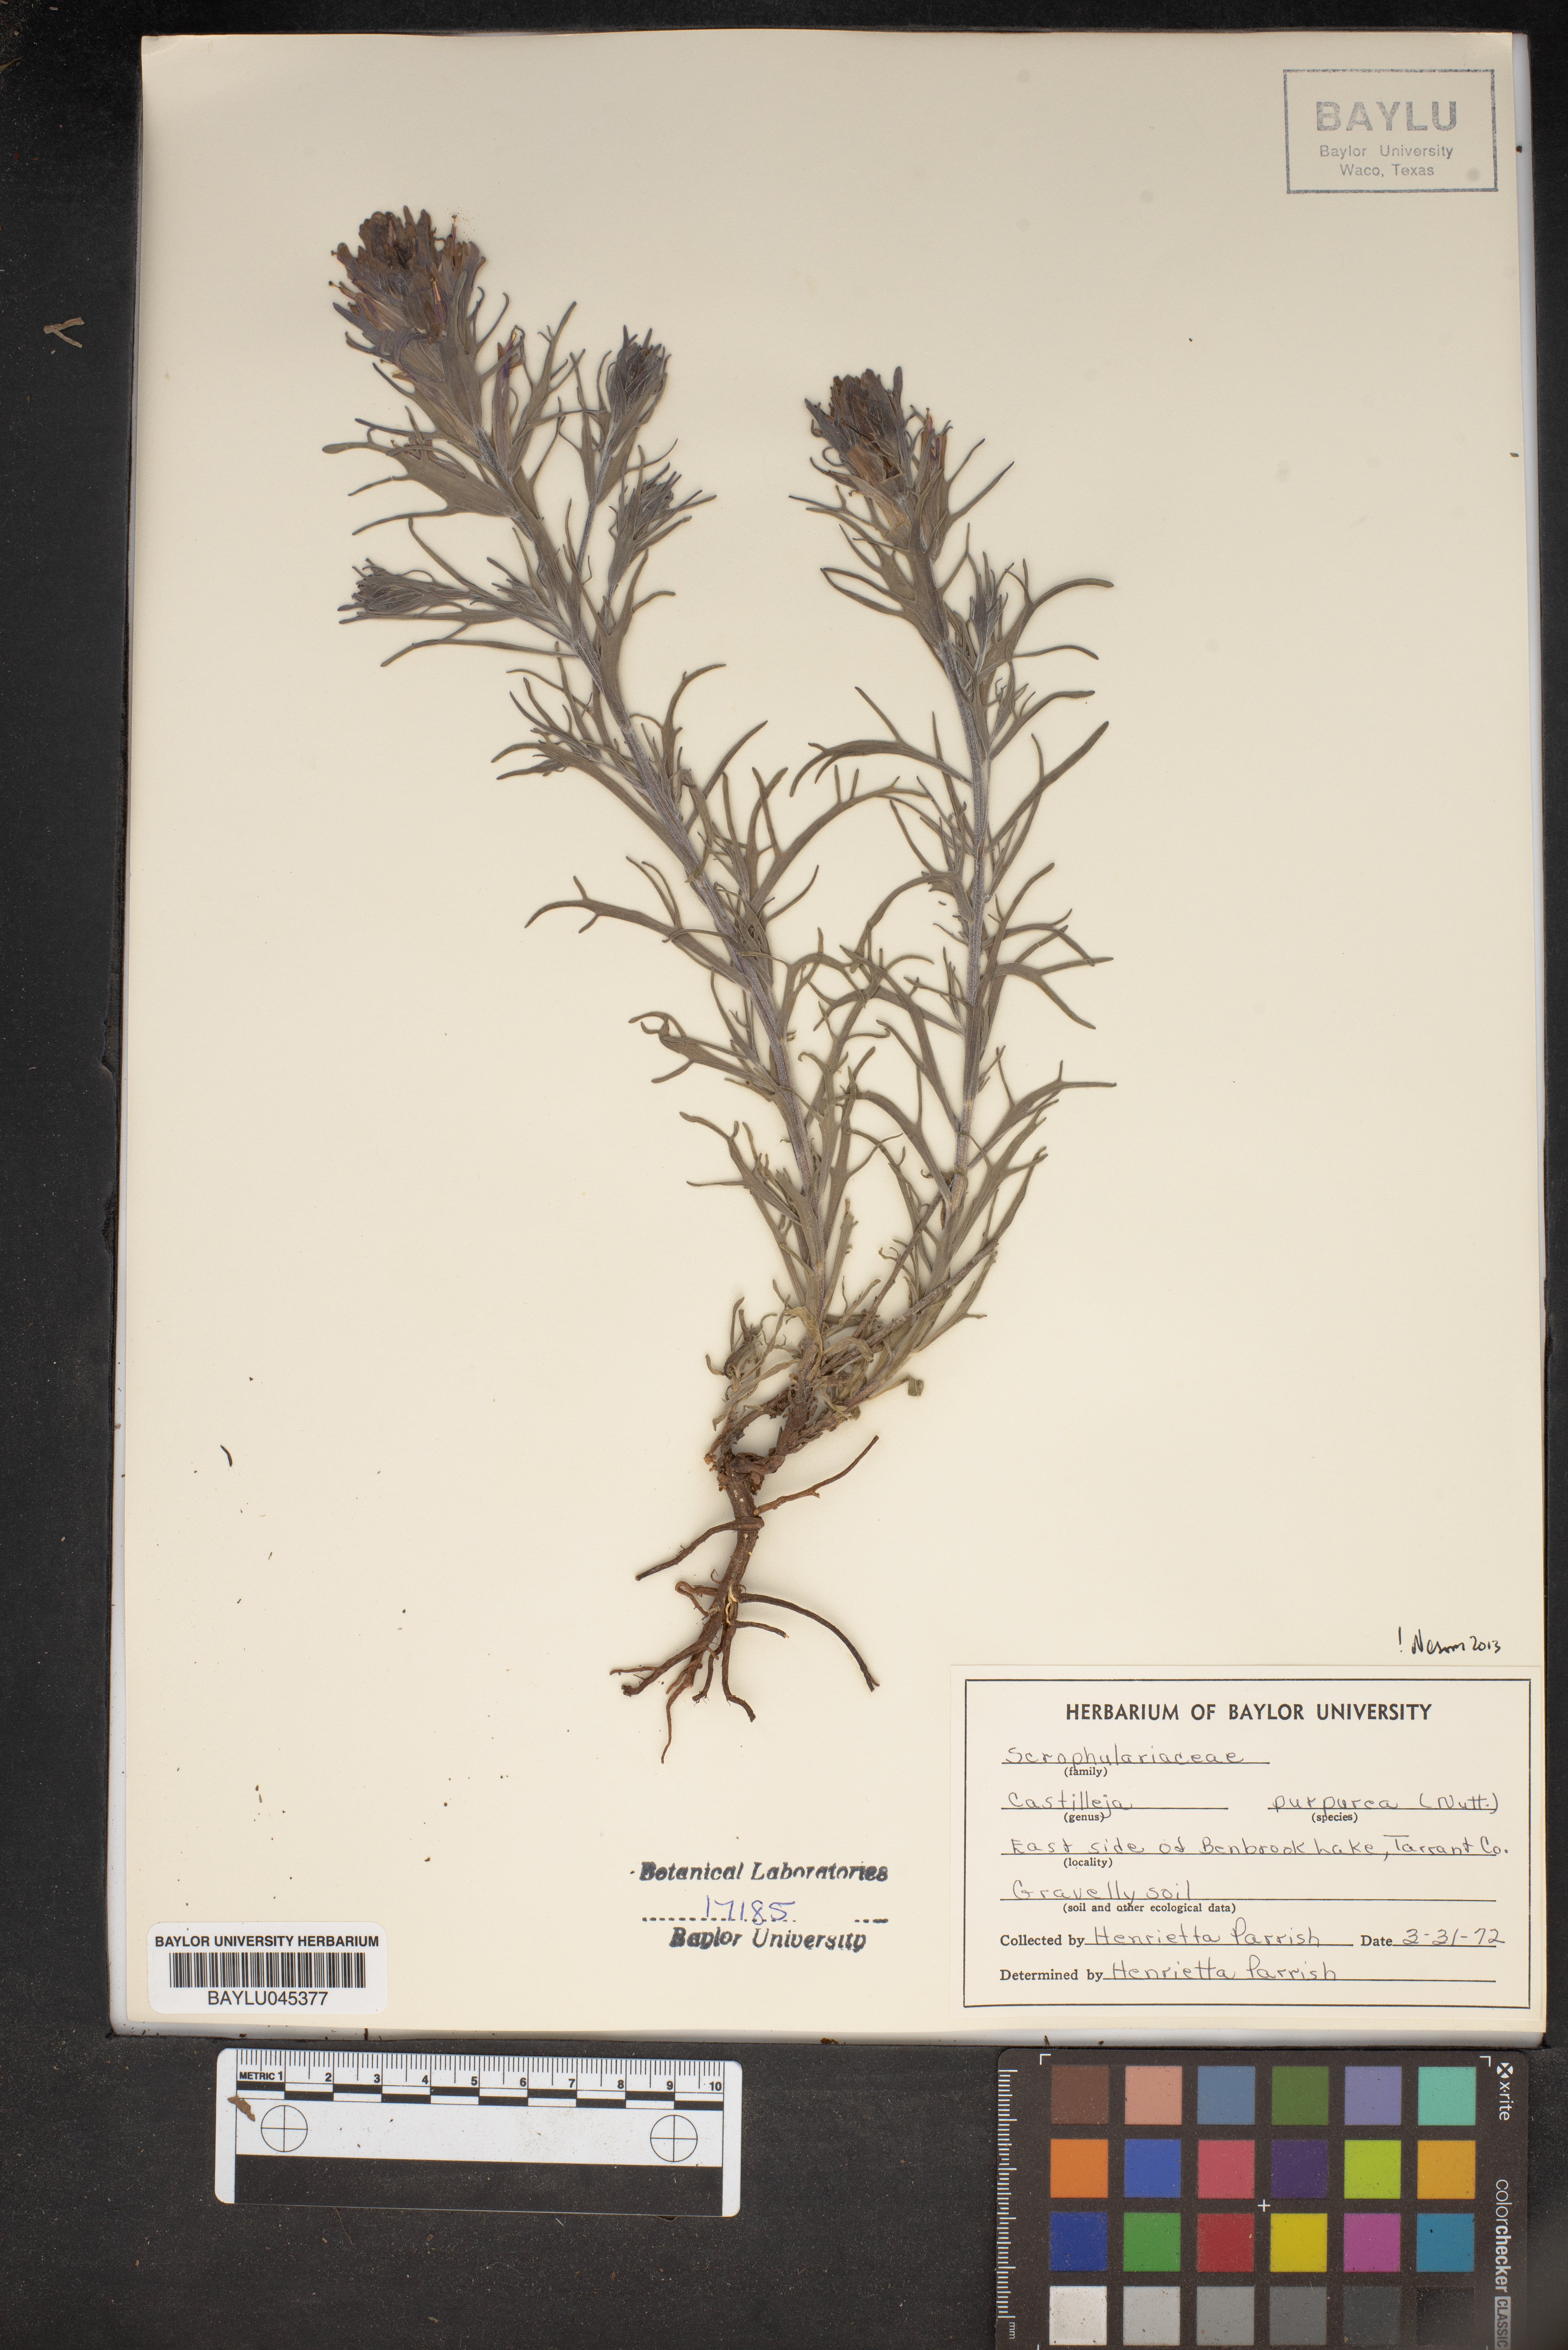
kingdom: Plantae
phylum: Tracheophyta
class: Magnoliopsida
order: Lamiales
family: Orobanchaceae
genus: Castilleja
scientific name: Castilleja purpurea
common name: Plains paintbrush
